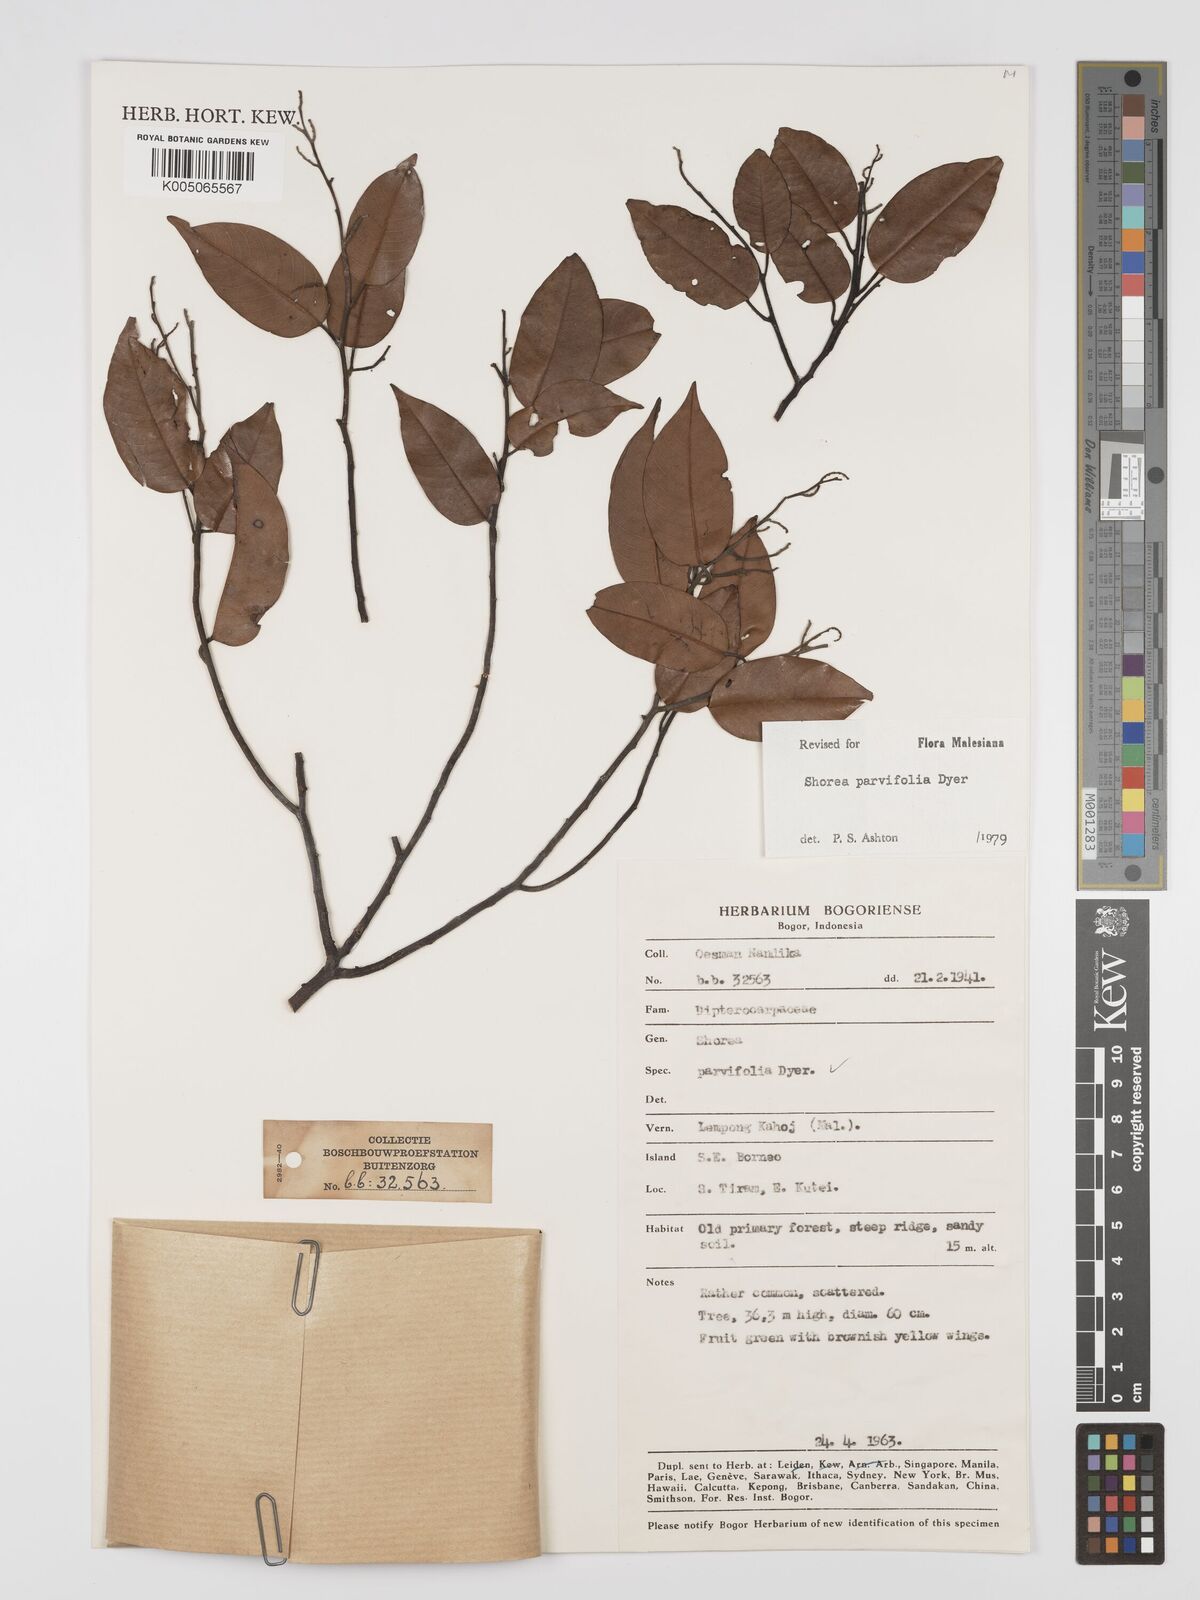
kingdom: Plantae
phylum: Tracheophyta
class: Magnoliopsida
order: Malvales
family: Dipterocarpaceae
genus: Shorea
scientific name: Shorea parvifolia
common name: Light red meranti
